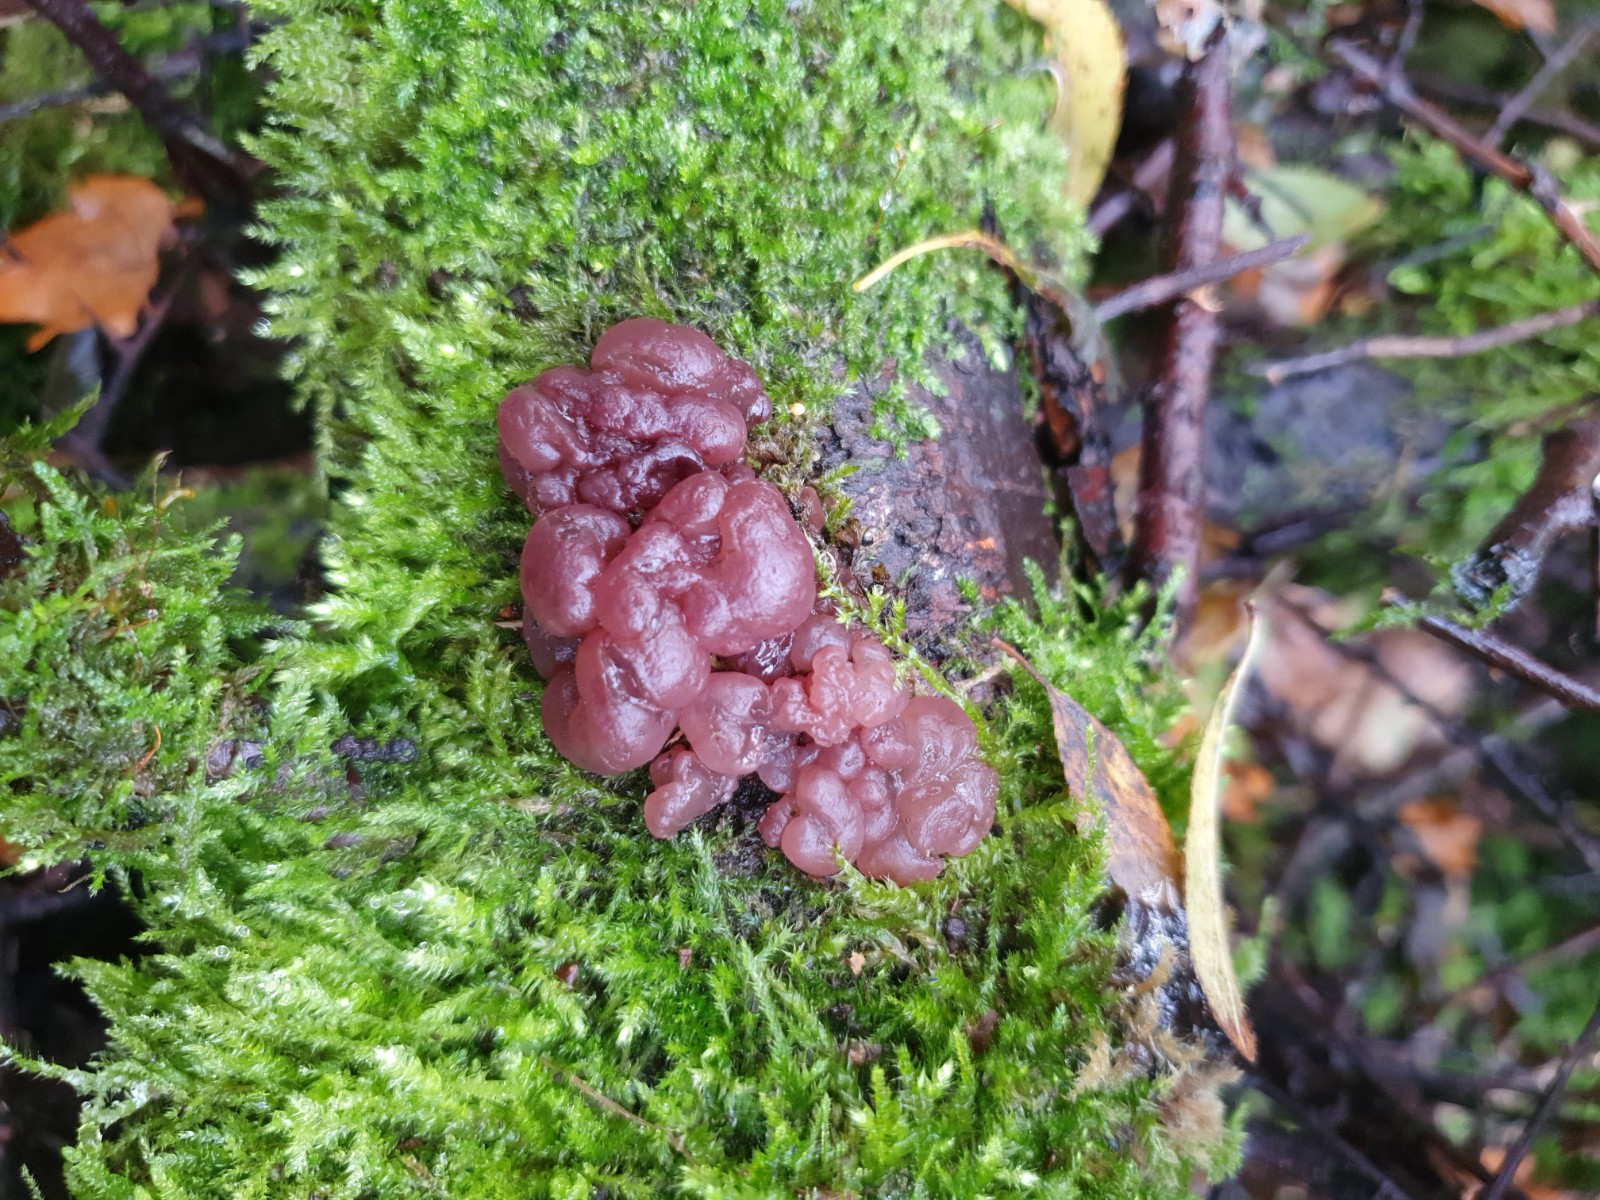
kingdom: Fungi
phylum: Ascomycota
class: Leotiomycetes
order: Helotiales
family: Gelatinodiscaceae
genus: Ascotremella
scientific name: Ascotremella faginea
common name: hjerne-bævreskive
